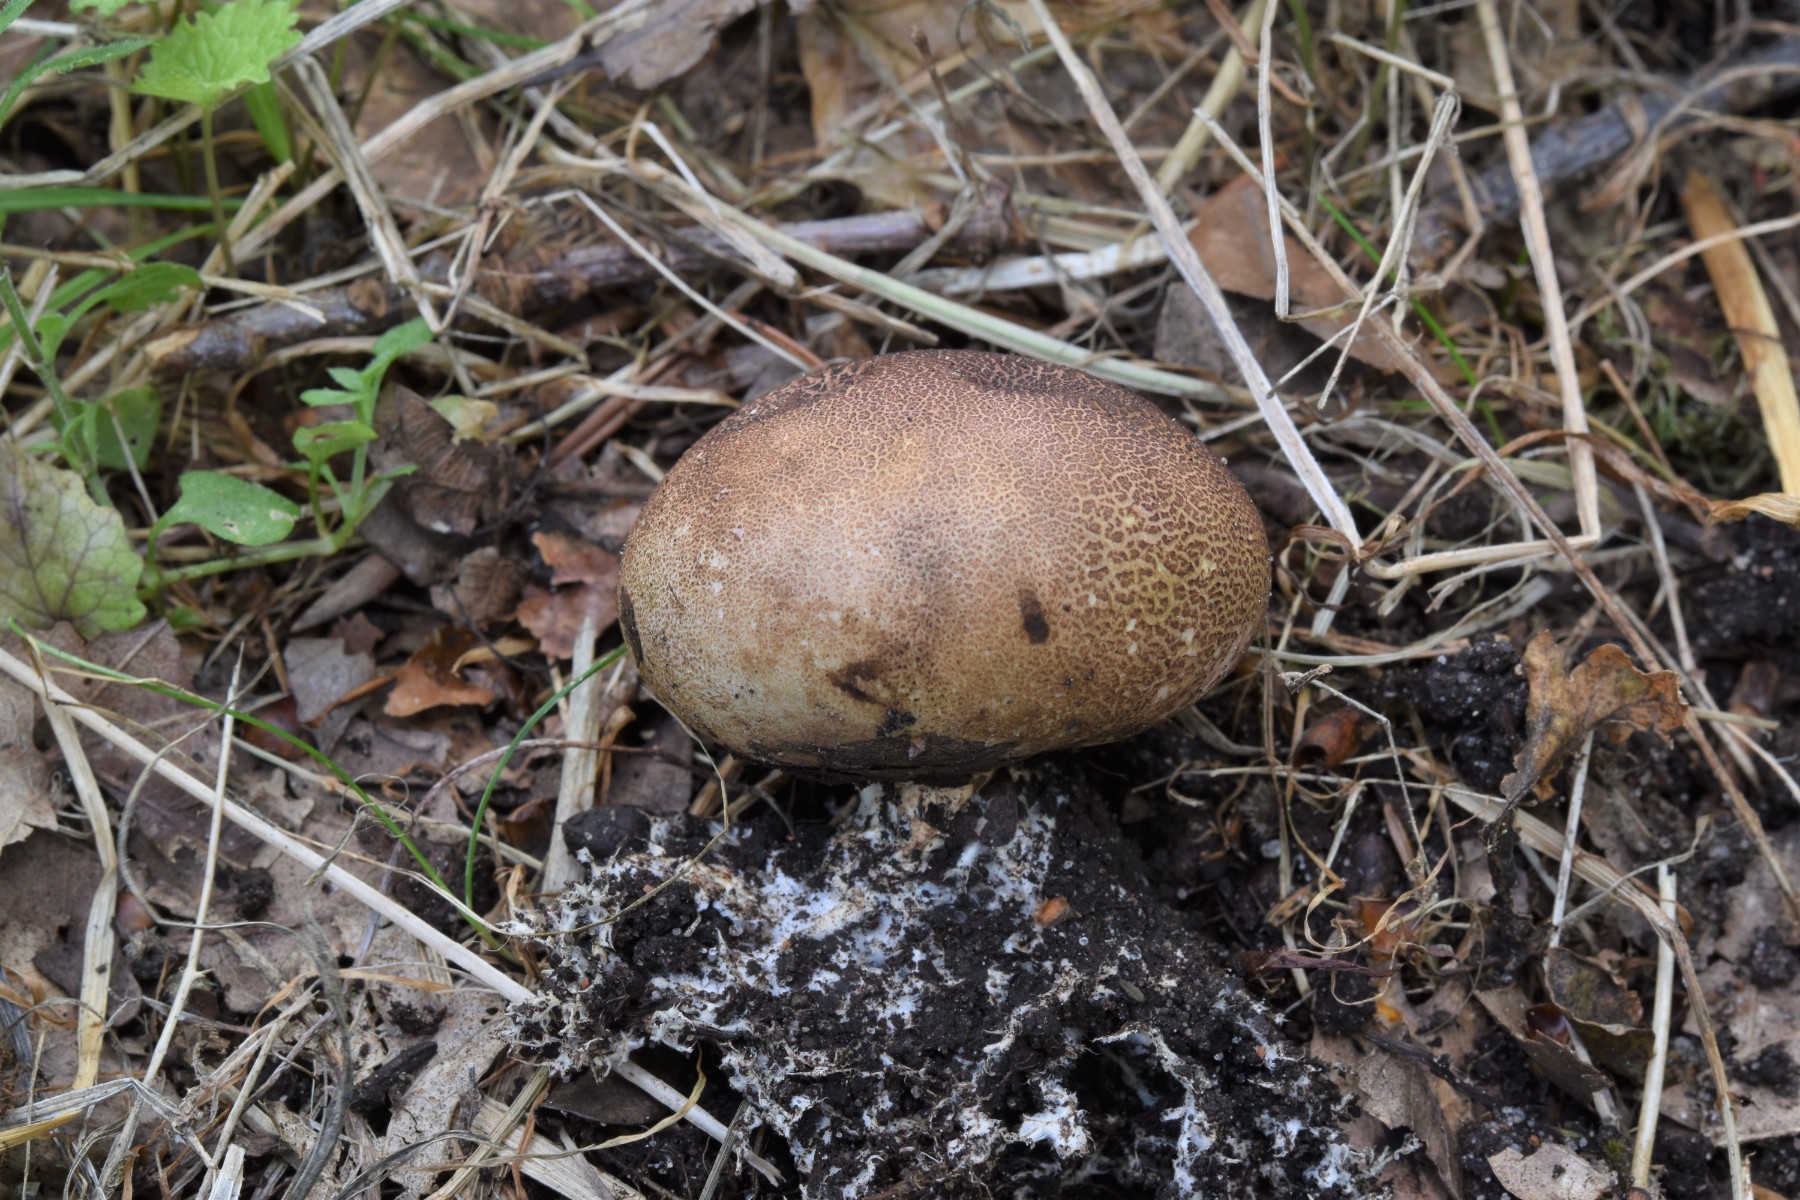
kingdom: Fungi
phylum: Basidiomycota
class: Agaricomycetes
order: Boletales
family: Sclerodermataceae
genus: Scleroderma
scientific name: Scleroderma areolatum
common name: plettet bruskbold
